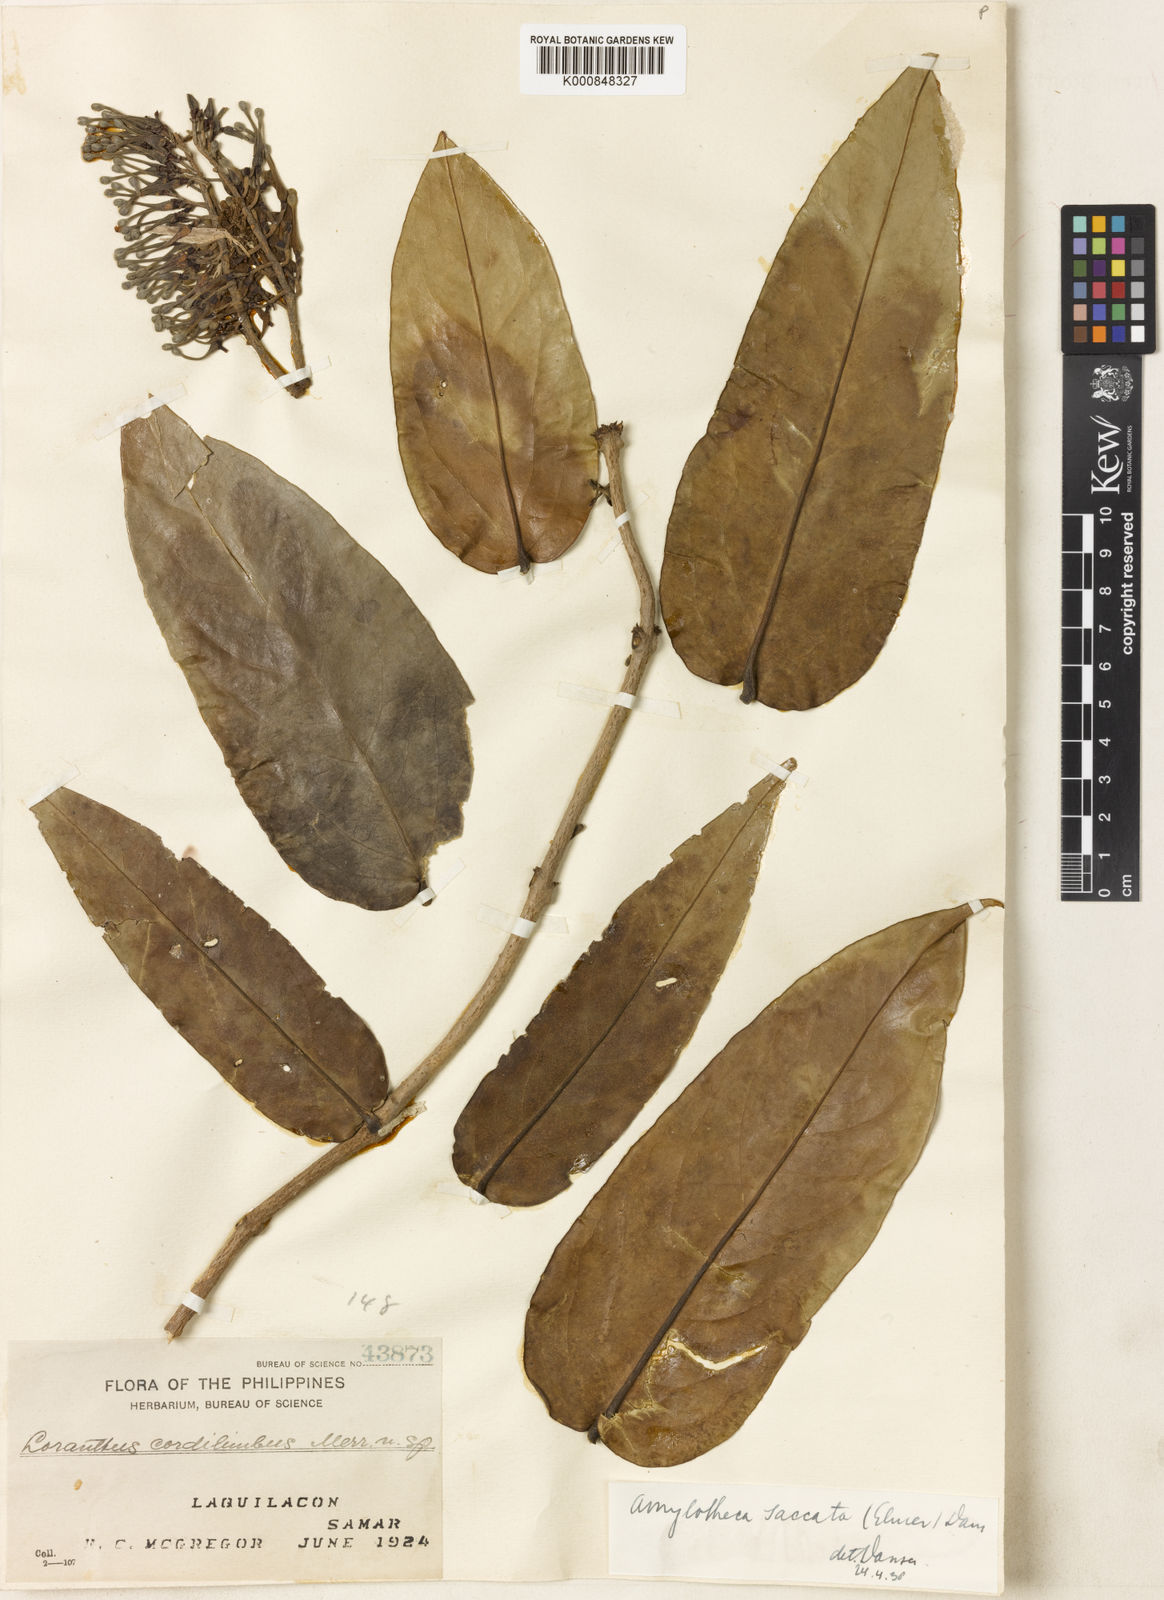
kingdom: Plantae
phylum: Tracheophyta
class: Magnoliopsida
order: Santalales
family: Loranthaceae
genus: Decaisnina
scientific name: Decaisnina aherniana
